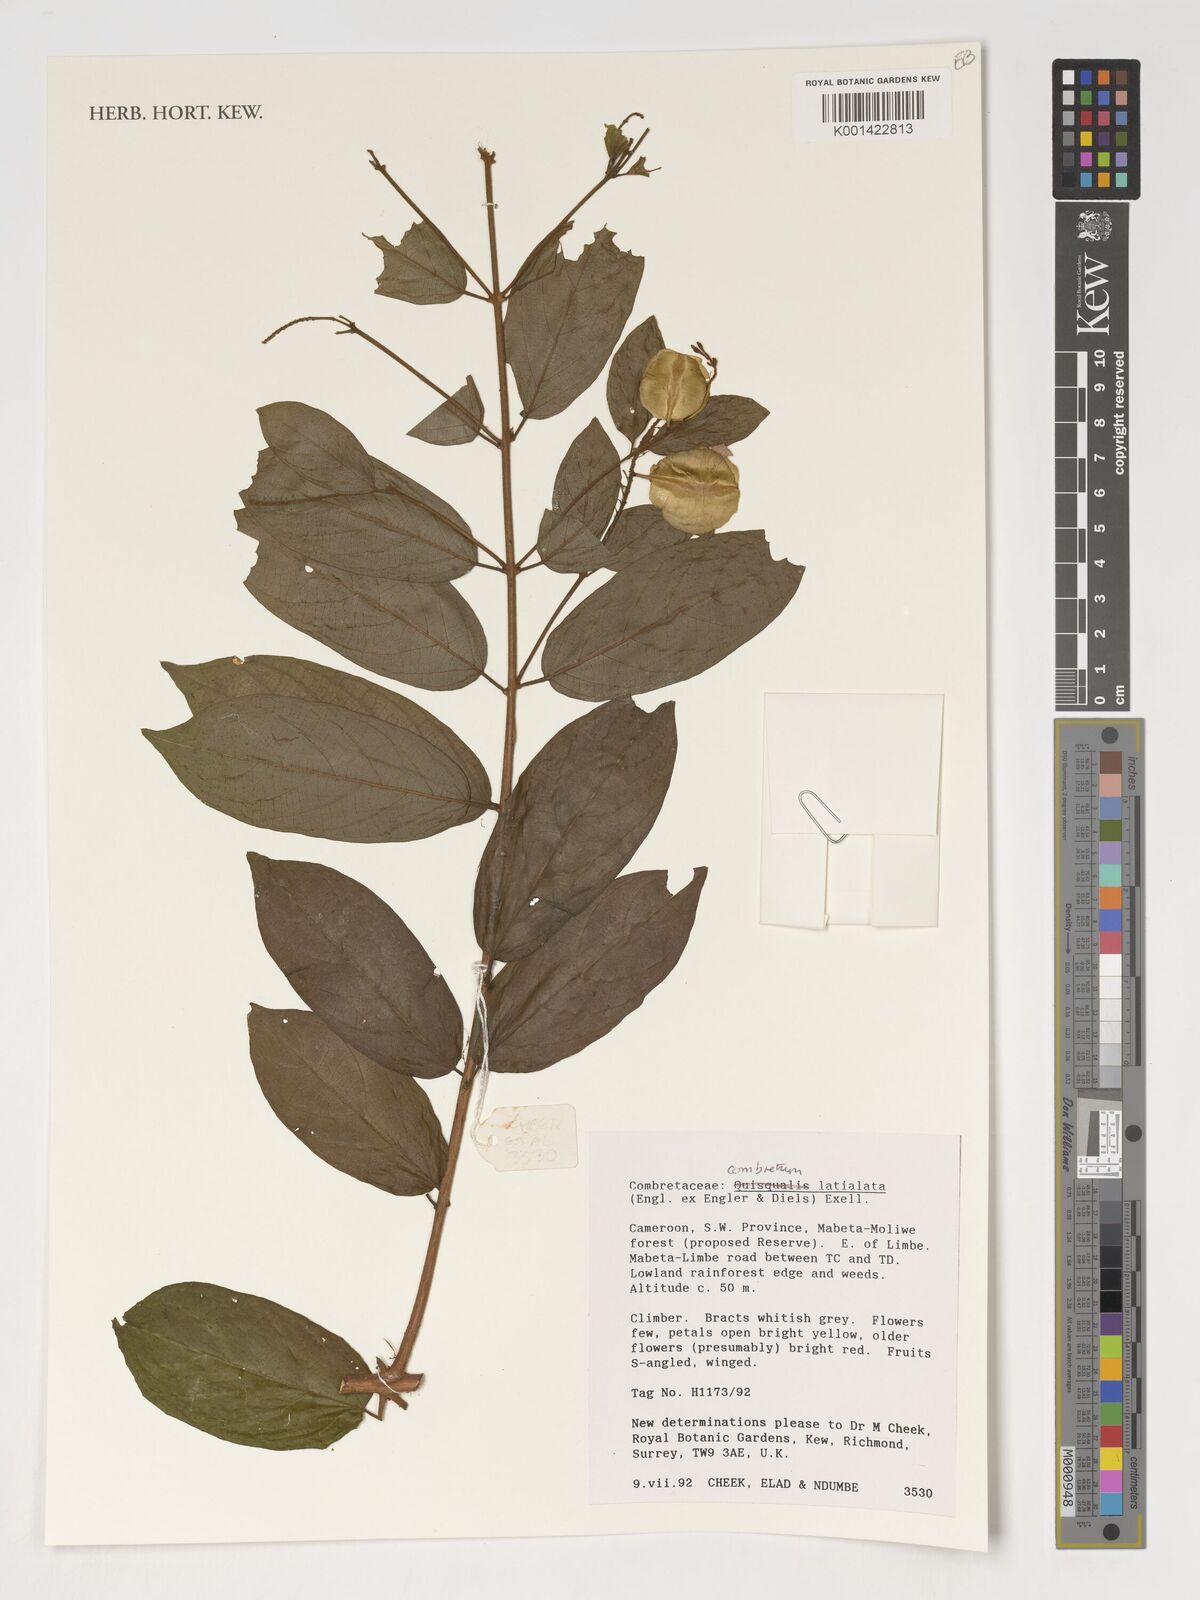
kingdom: Plantae
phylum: Tracheophyta
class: Magnoliopsida
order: Myrtales
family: Combretaceae
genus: Combretum
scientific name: Combretum latialatum
